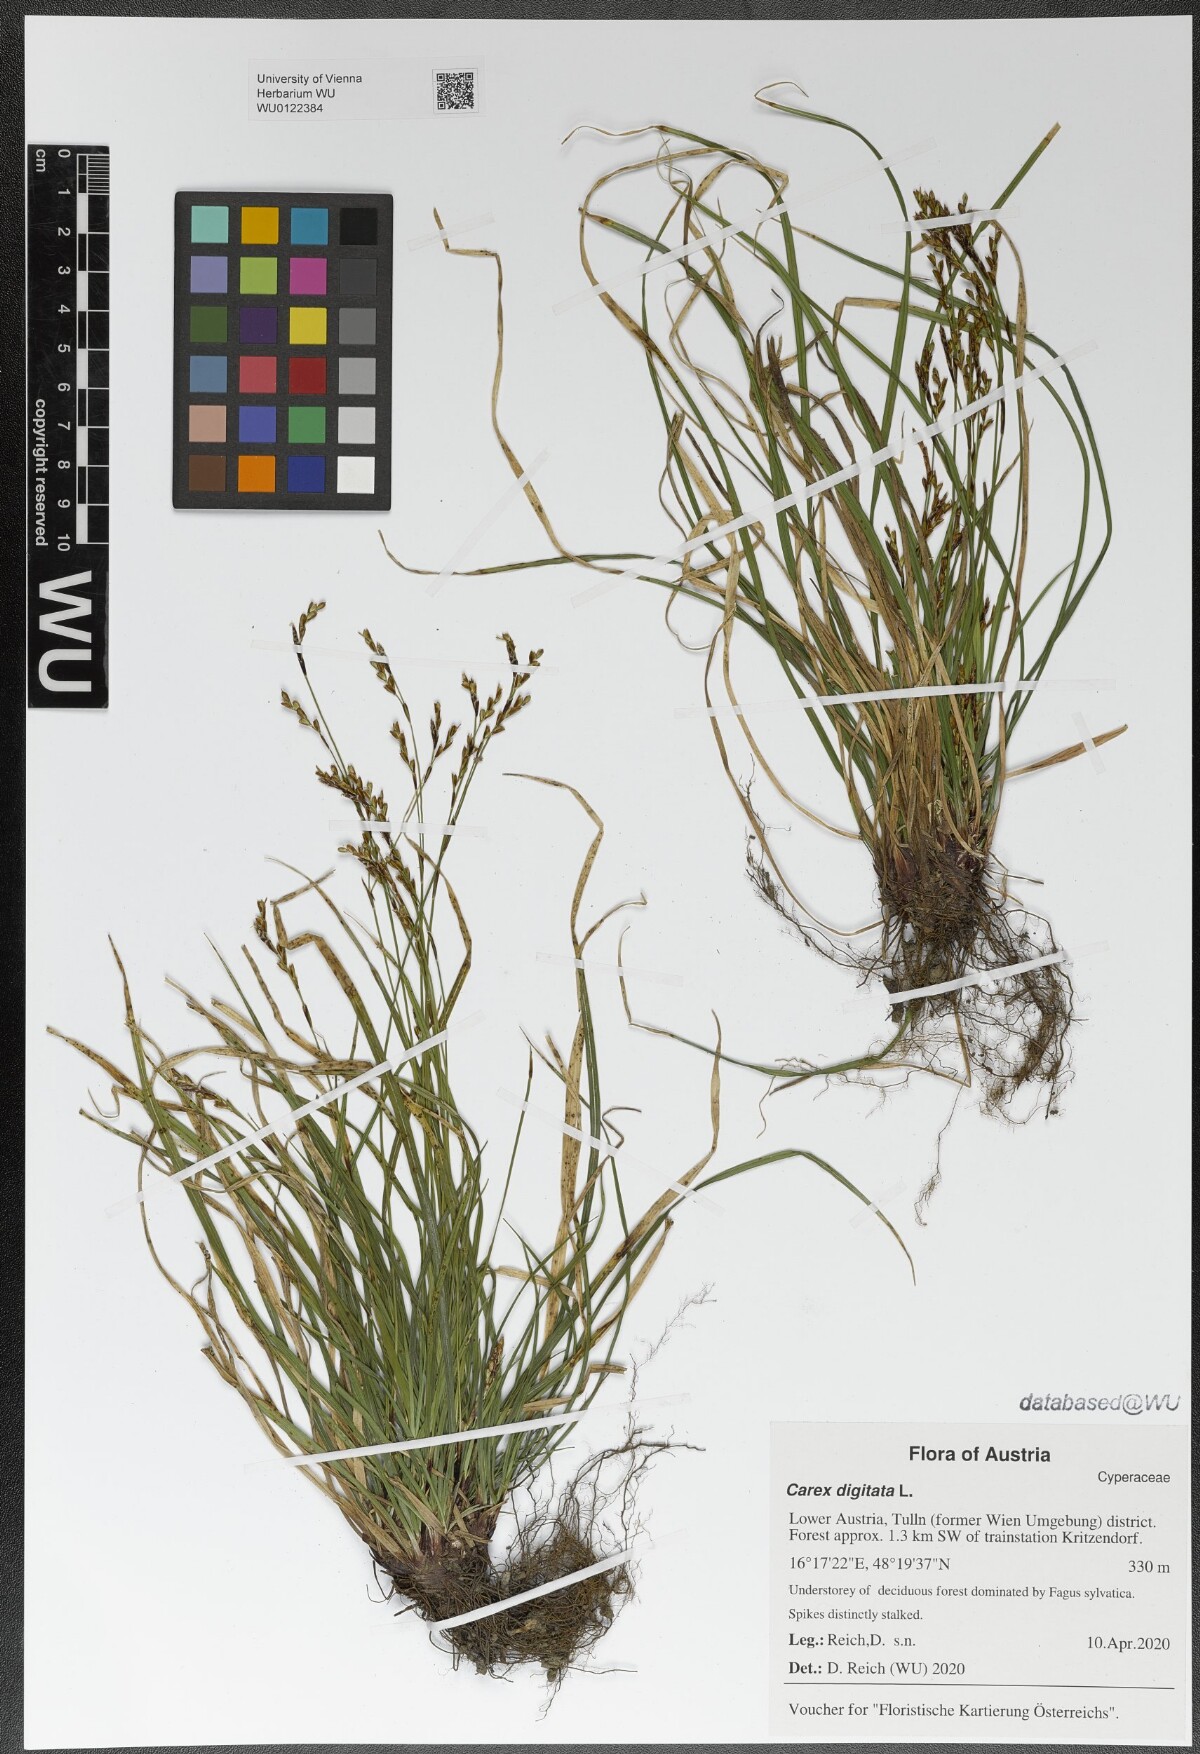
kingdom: Plantae
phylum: Tracheophyta
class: Liliopsida
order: Poales
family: Cyperaceae
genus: Carex
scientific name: Carex digitata
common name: Fingered sedge
